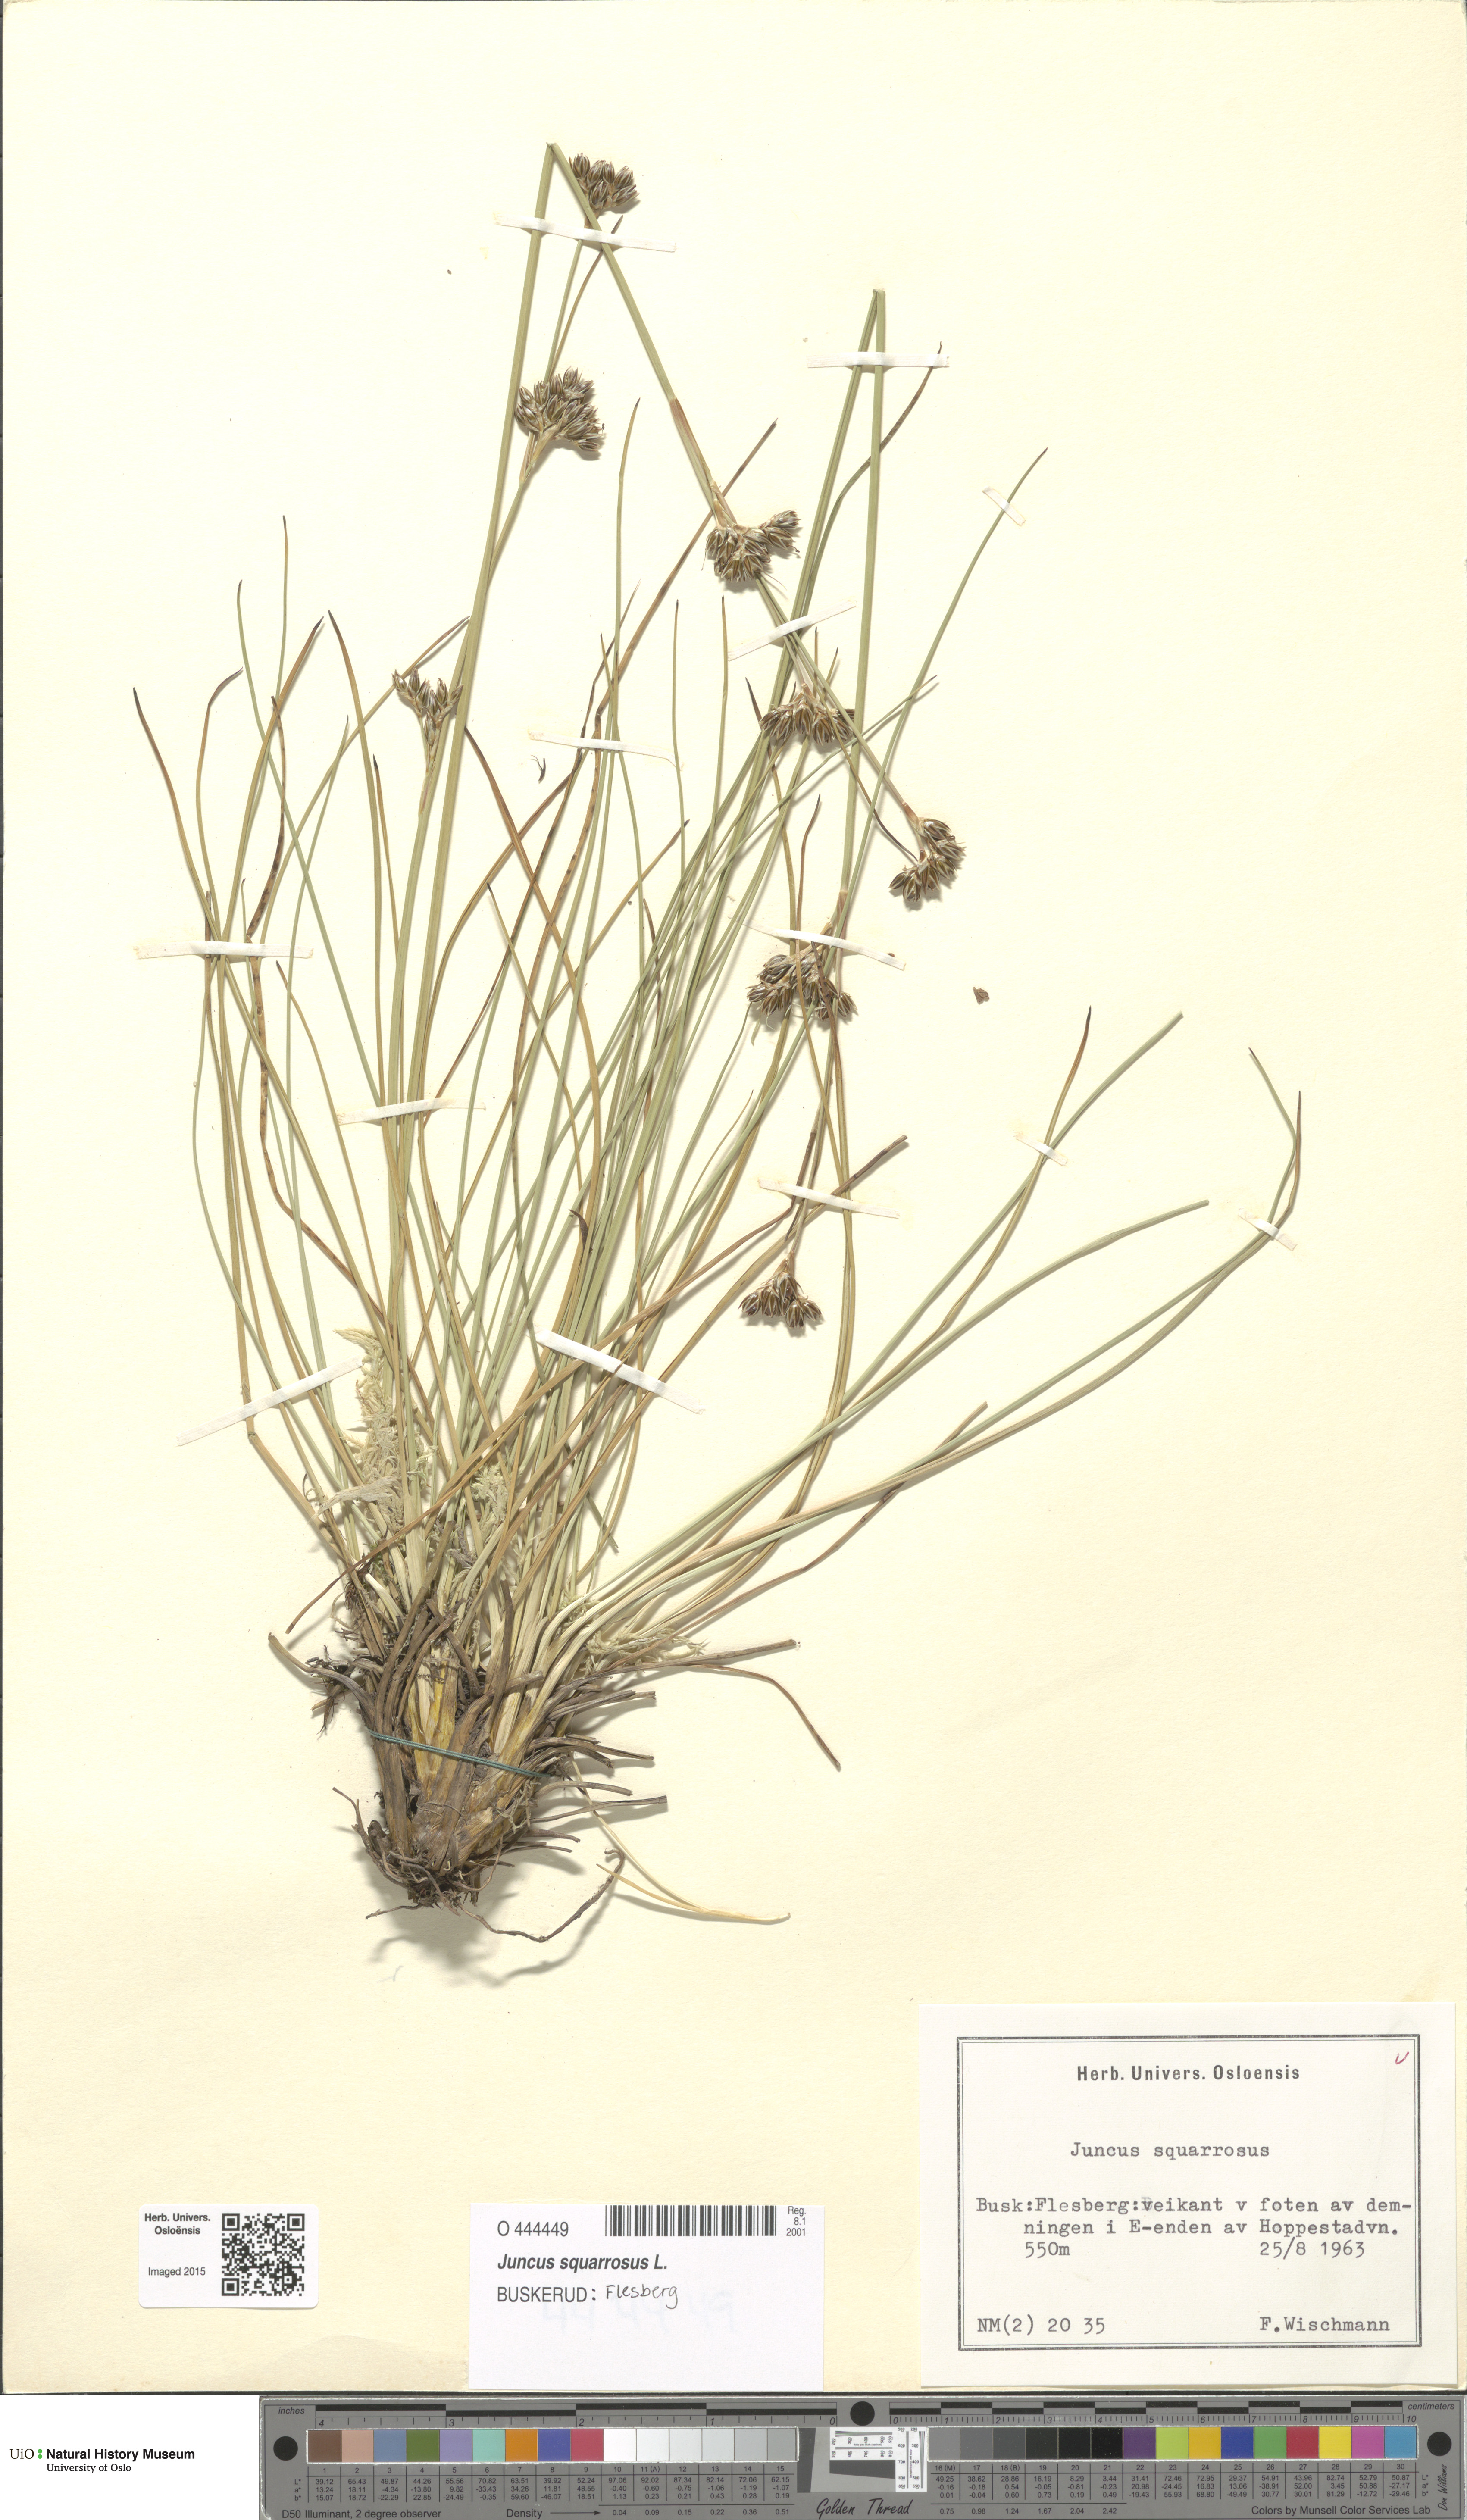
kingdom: Plantae
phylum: Tracheophyta
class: Liliopsida
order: Poales
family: Juncaceae
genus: Juncus
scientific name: Juncus squarrosus
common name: Heath rush
